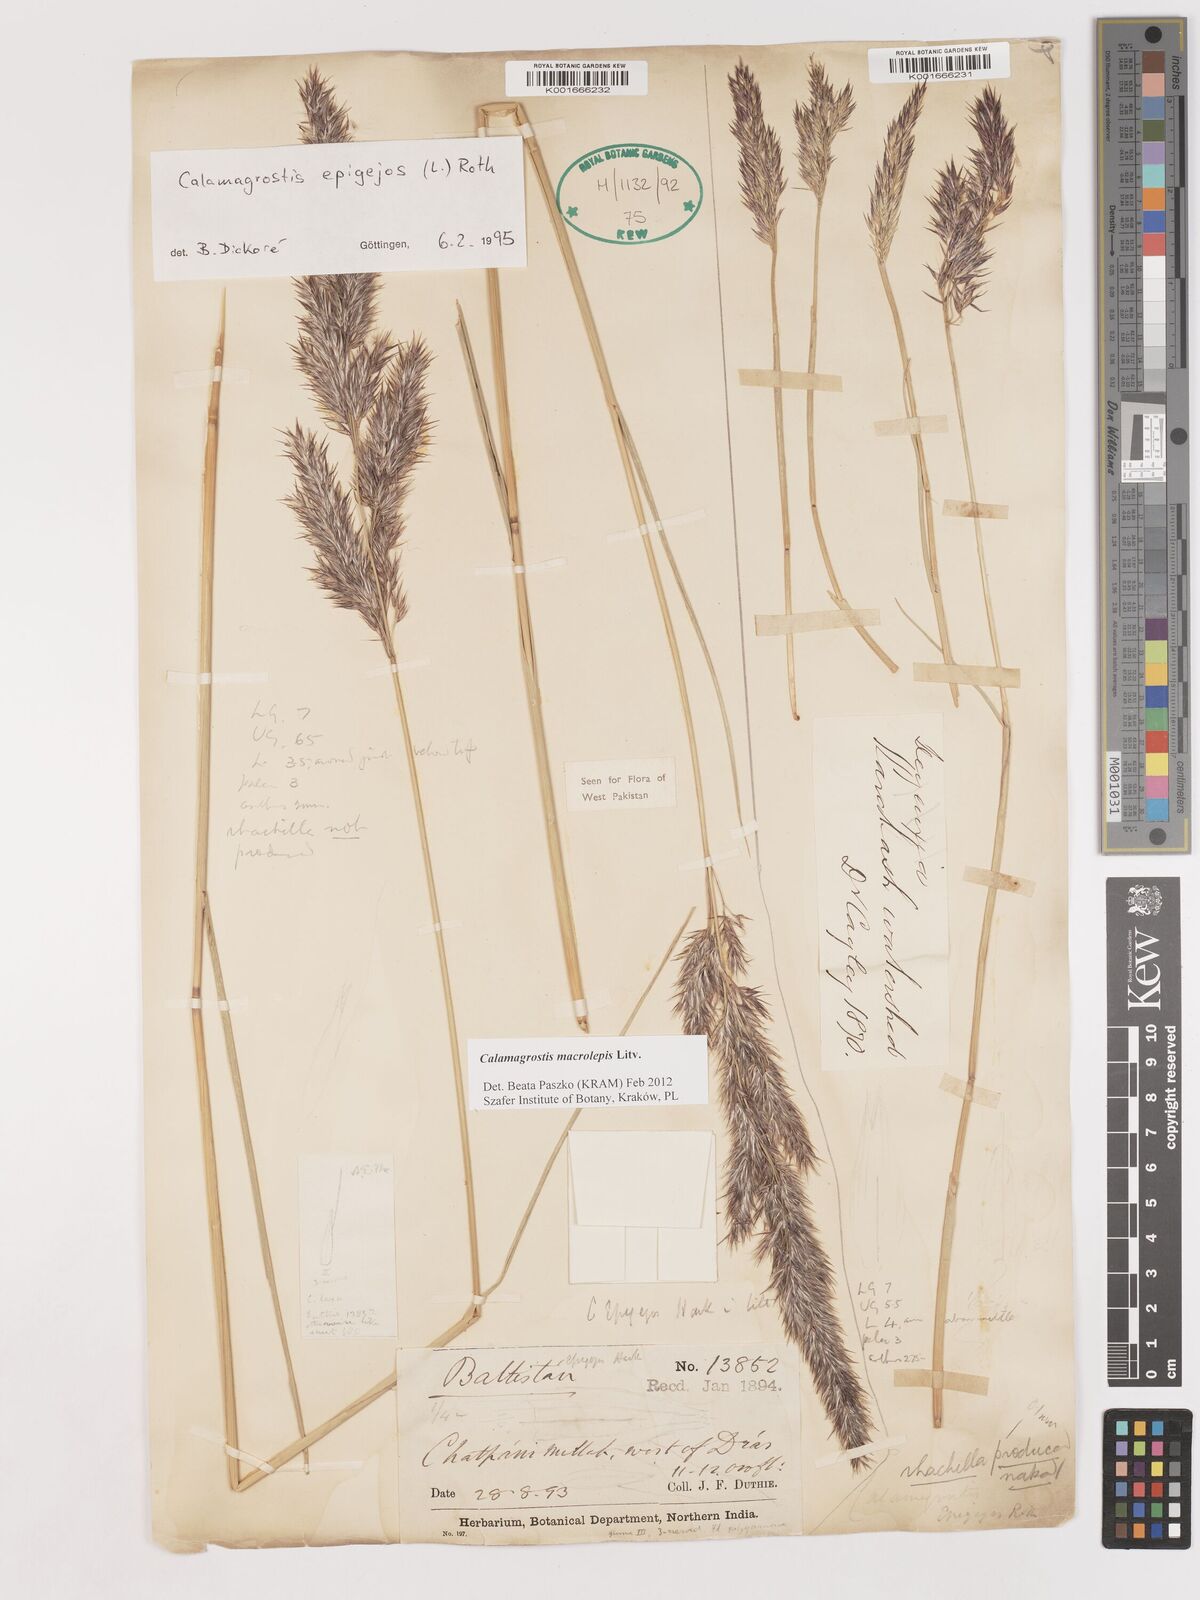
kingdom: Plantae
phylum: Tracheophyta
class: Liliopsida
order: Poales
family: Poaceae
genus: Calamagrostis
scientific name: Calamagrostis epigejos
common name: Wood small-reed
